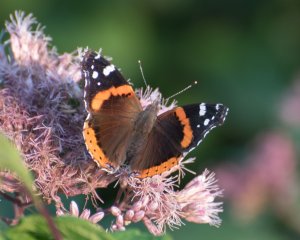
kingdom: Animalia
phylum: Arthropoda
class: Insecta
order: Lepidoptera
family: Nymphalidae
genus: Vanessa
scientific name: Vanessa atalanta
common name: Red Admiral
